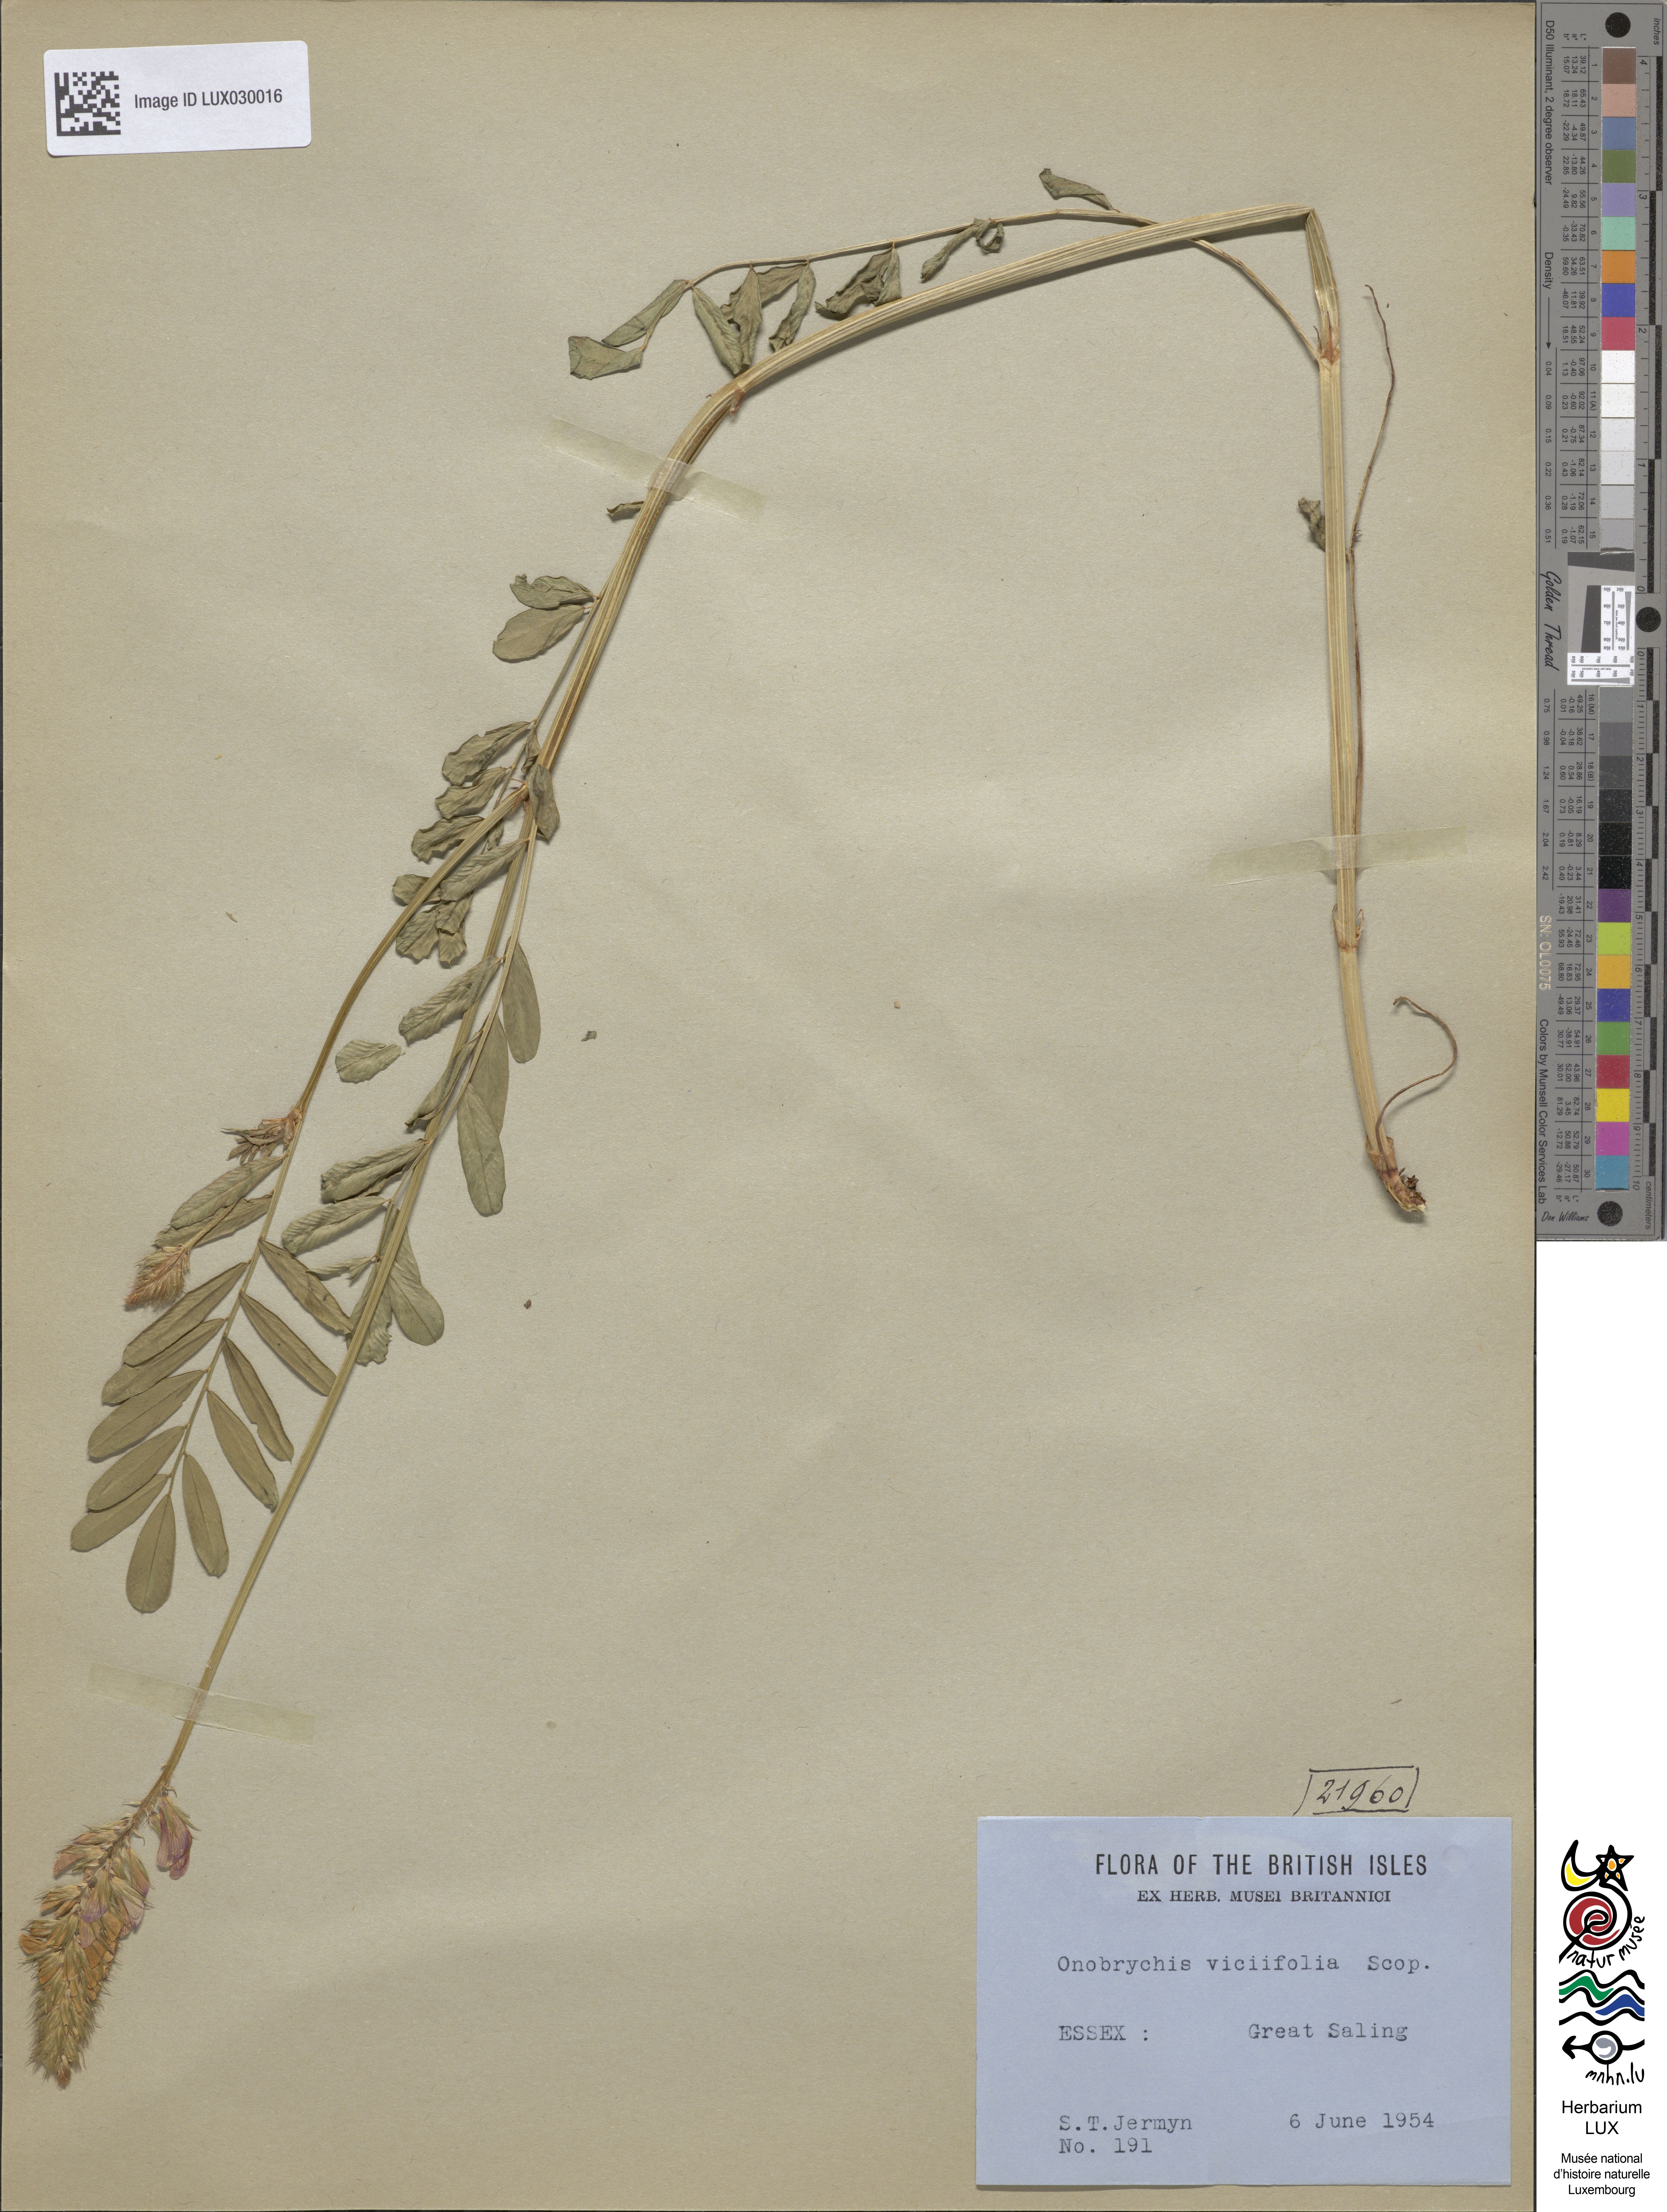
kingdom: Plantae
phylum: Tracheophyta
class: Magnoliopsida
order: Fabales
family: Fabaceae
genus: Onobrychis
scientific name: Onobrychis viciifolia
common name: Sainfoin
